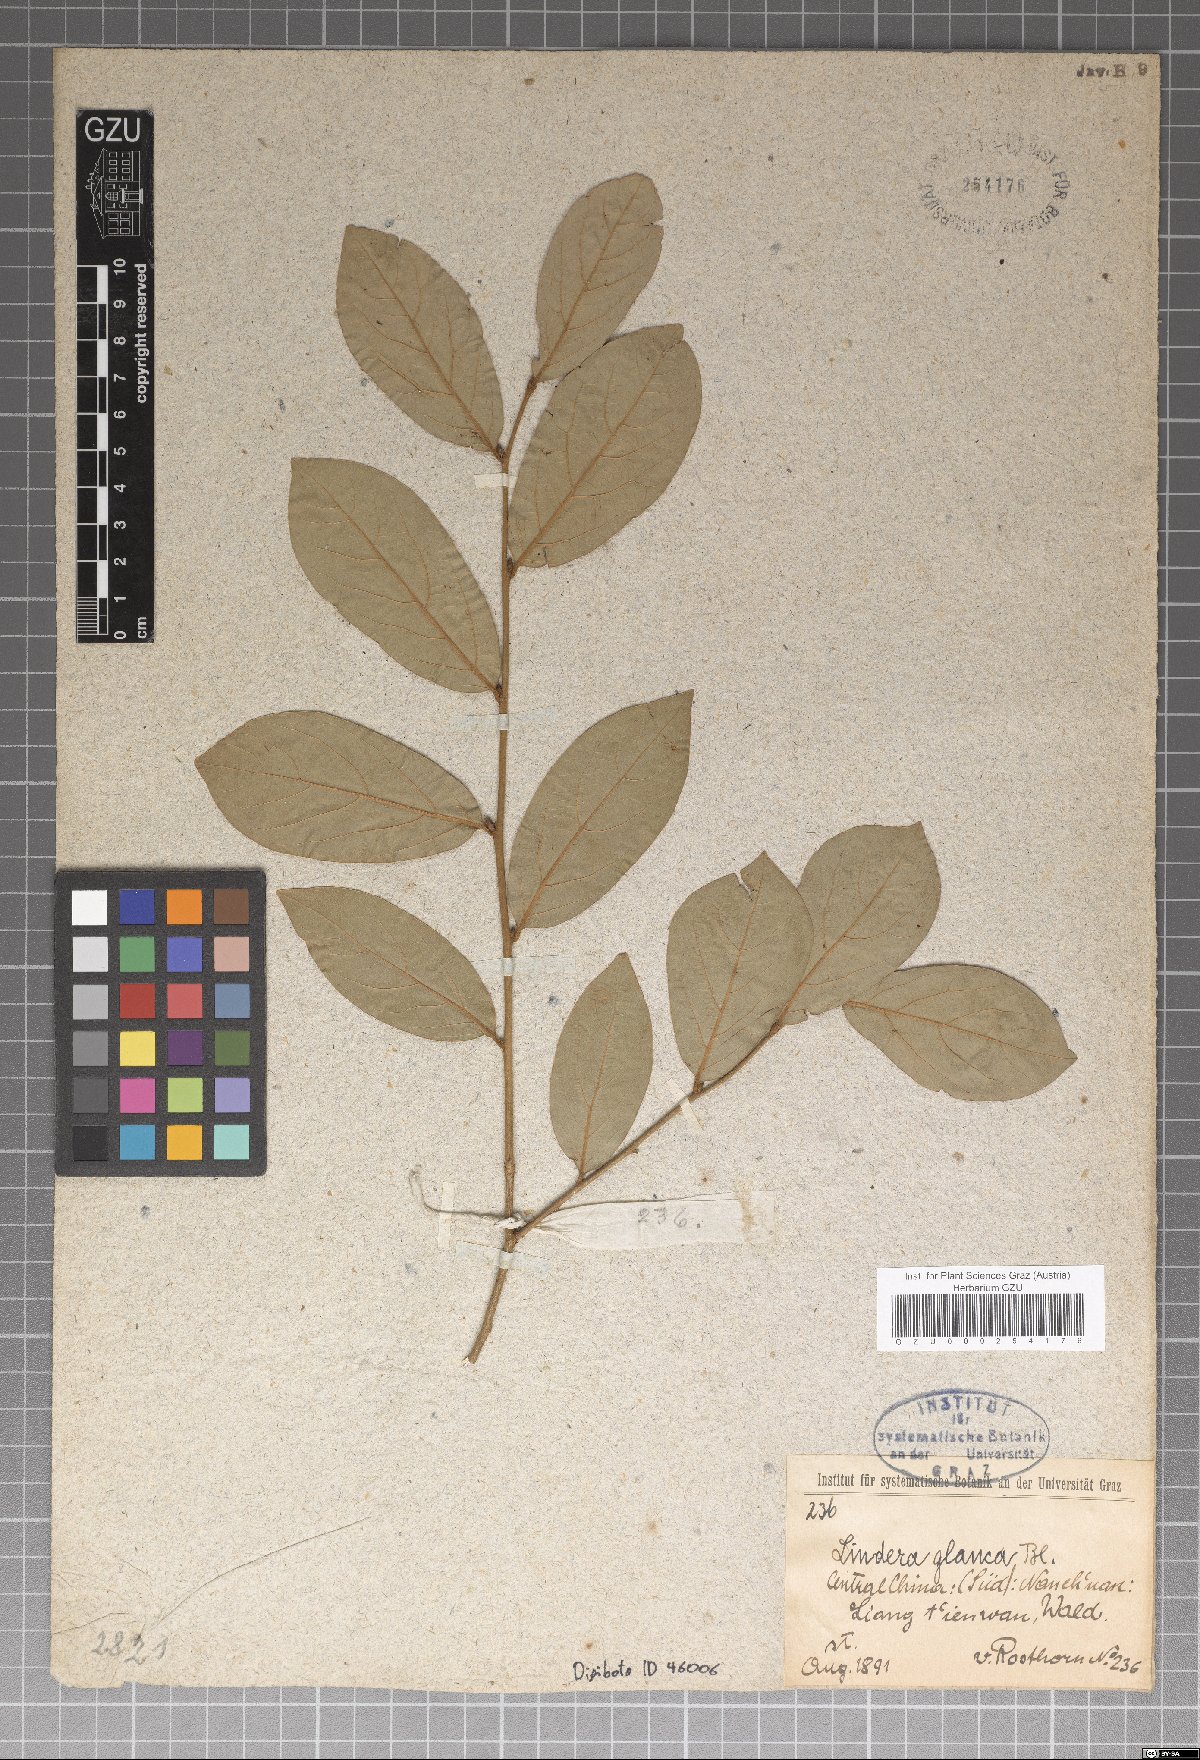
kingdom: Plantae
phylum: Tracheophyta
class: Magnoliopsida
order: Laurales
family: Lauraceae
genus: Lindera
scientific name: Lindera glauca
